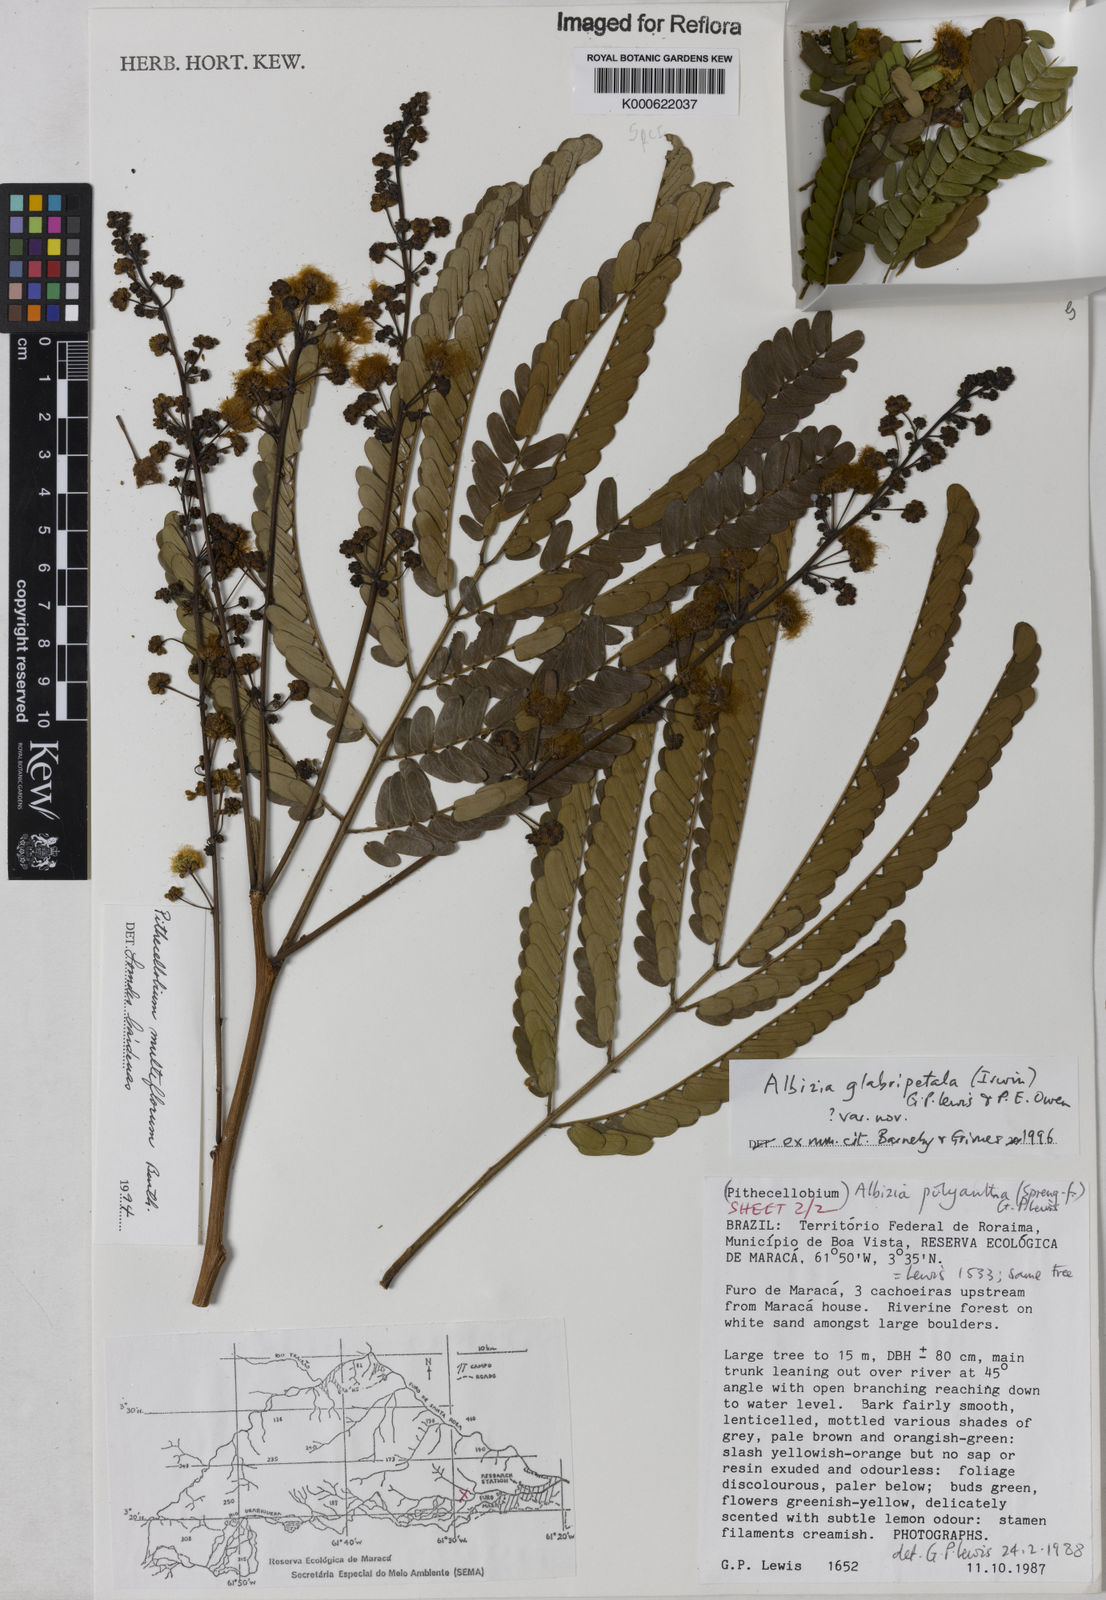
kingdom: Plantae
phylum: Tracheophyta
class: Magnoliopsida
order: Fabales
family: Fabaceae
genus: Albizia
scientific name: Albizia glabripetala
